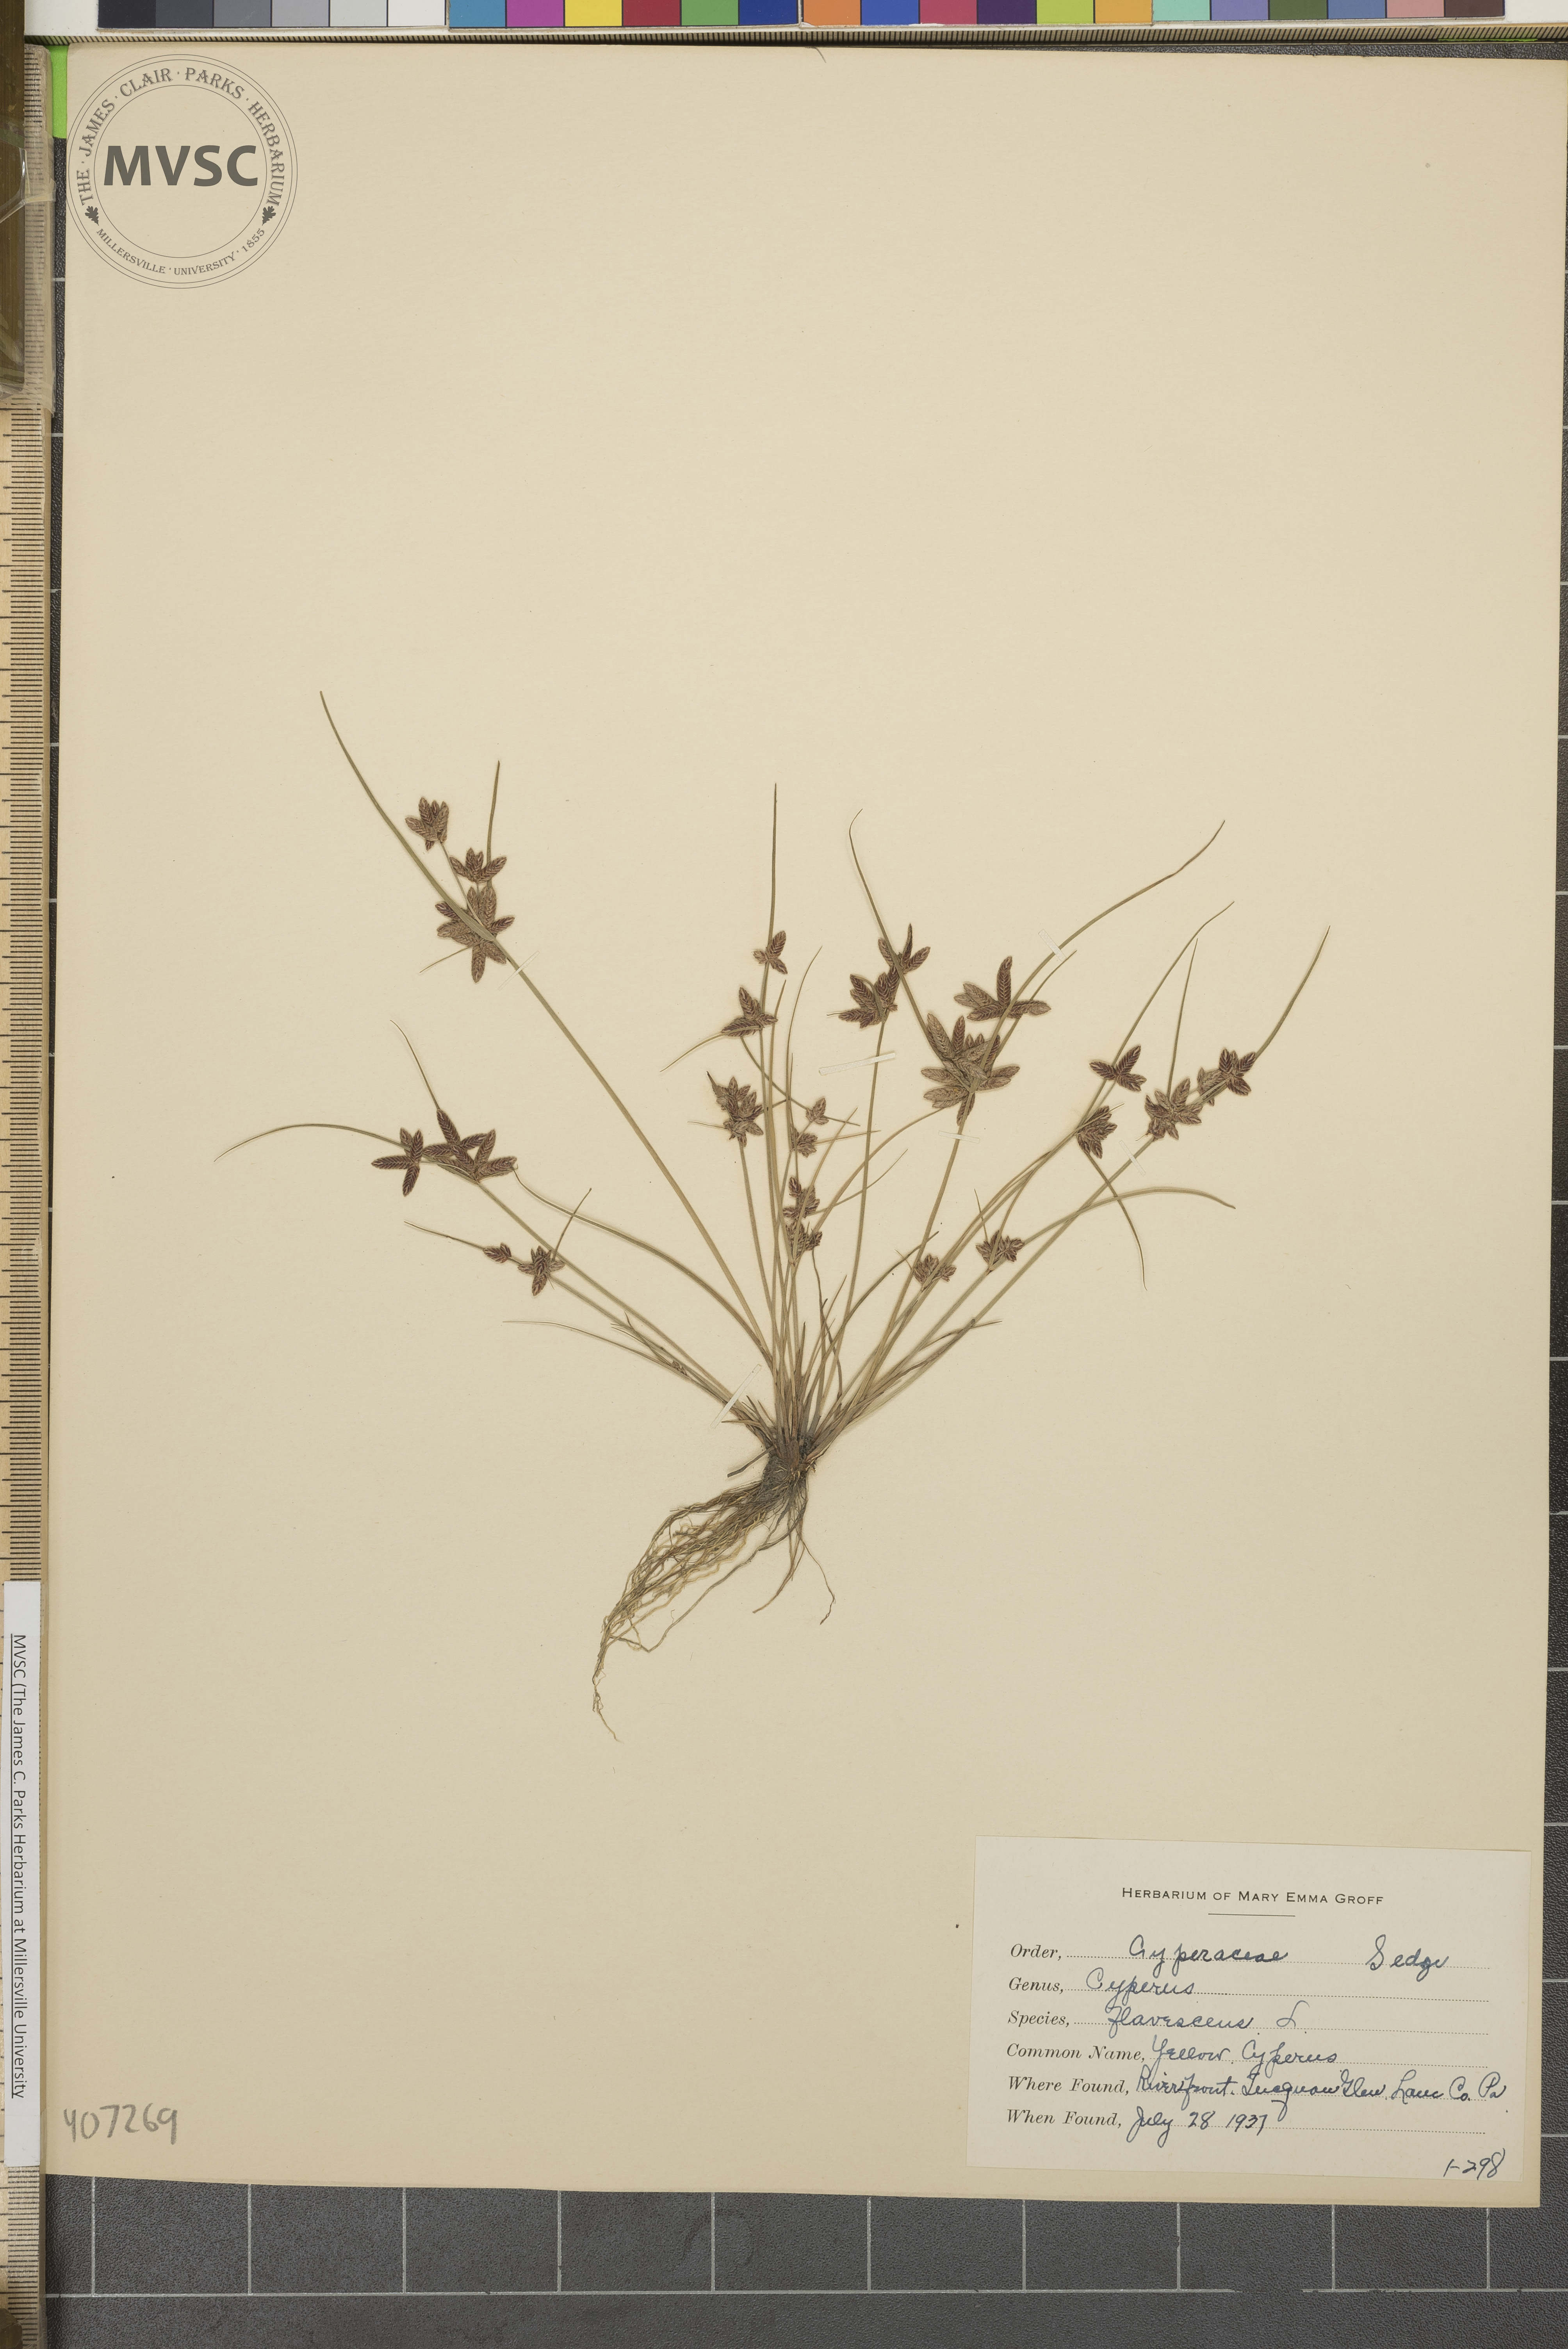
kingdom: Plantae
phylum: Tracheophyta
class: Liliopsida
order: Poales
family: Cyperaceae
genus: Cyperus
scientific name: Cyperus flavescens
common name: Yellow Cyperus
